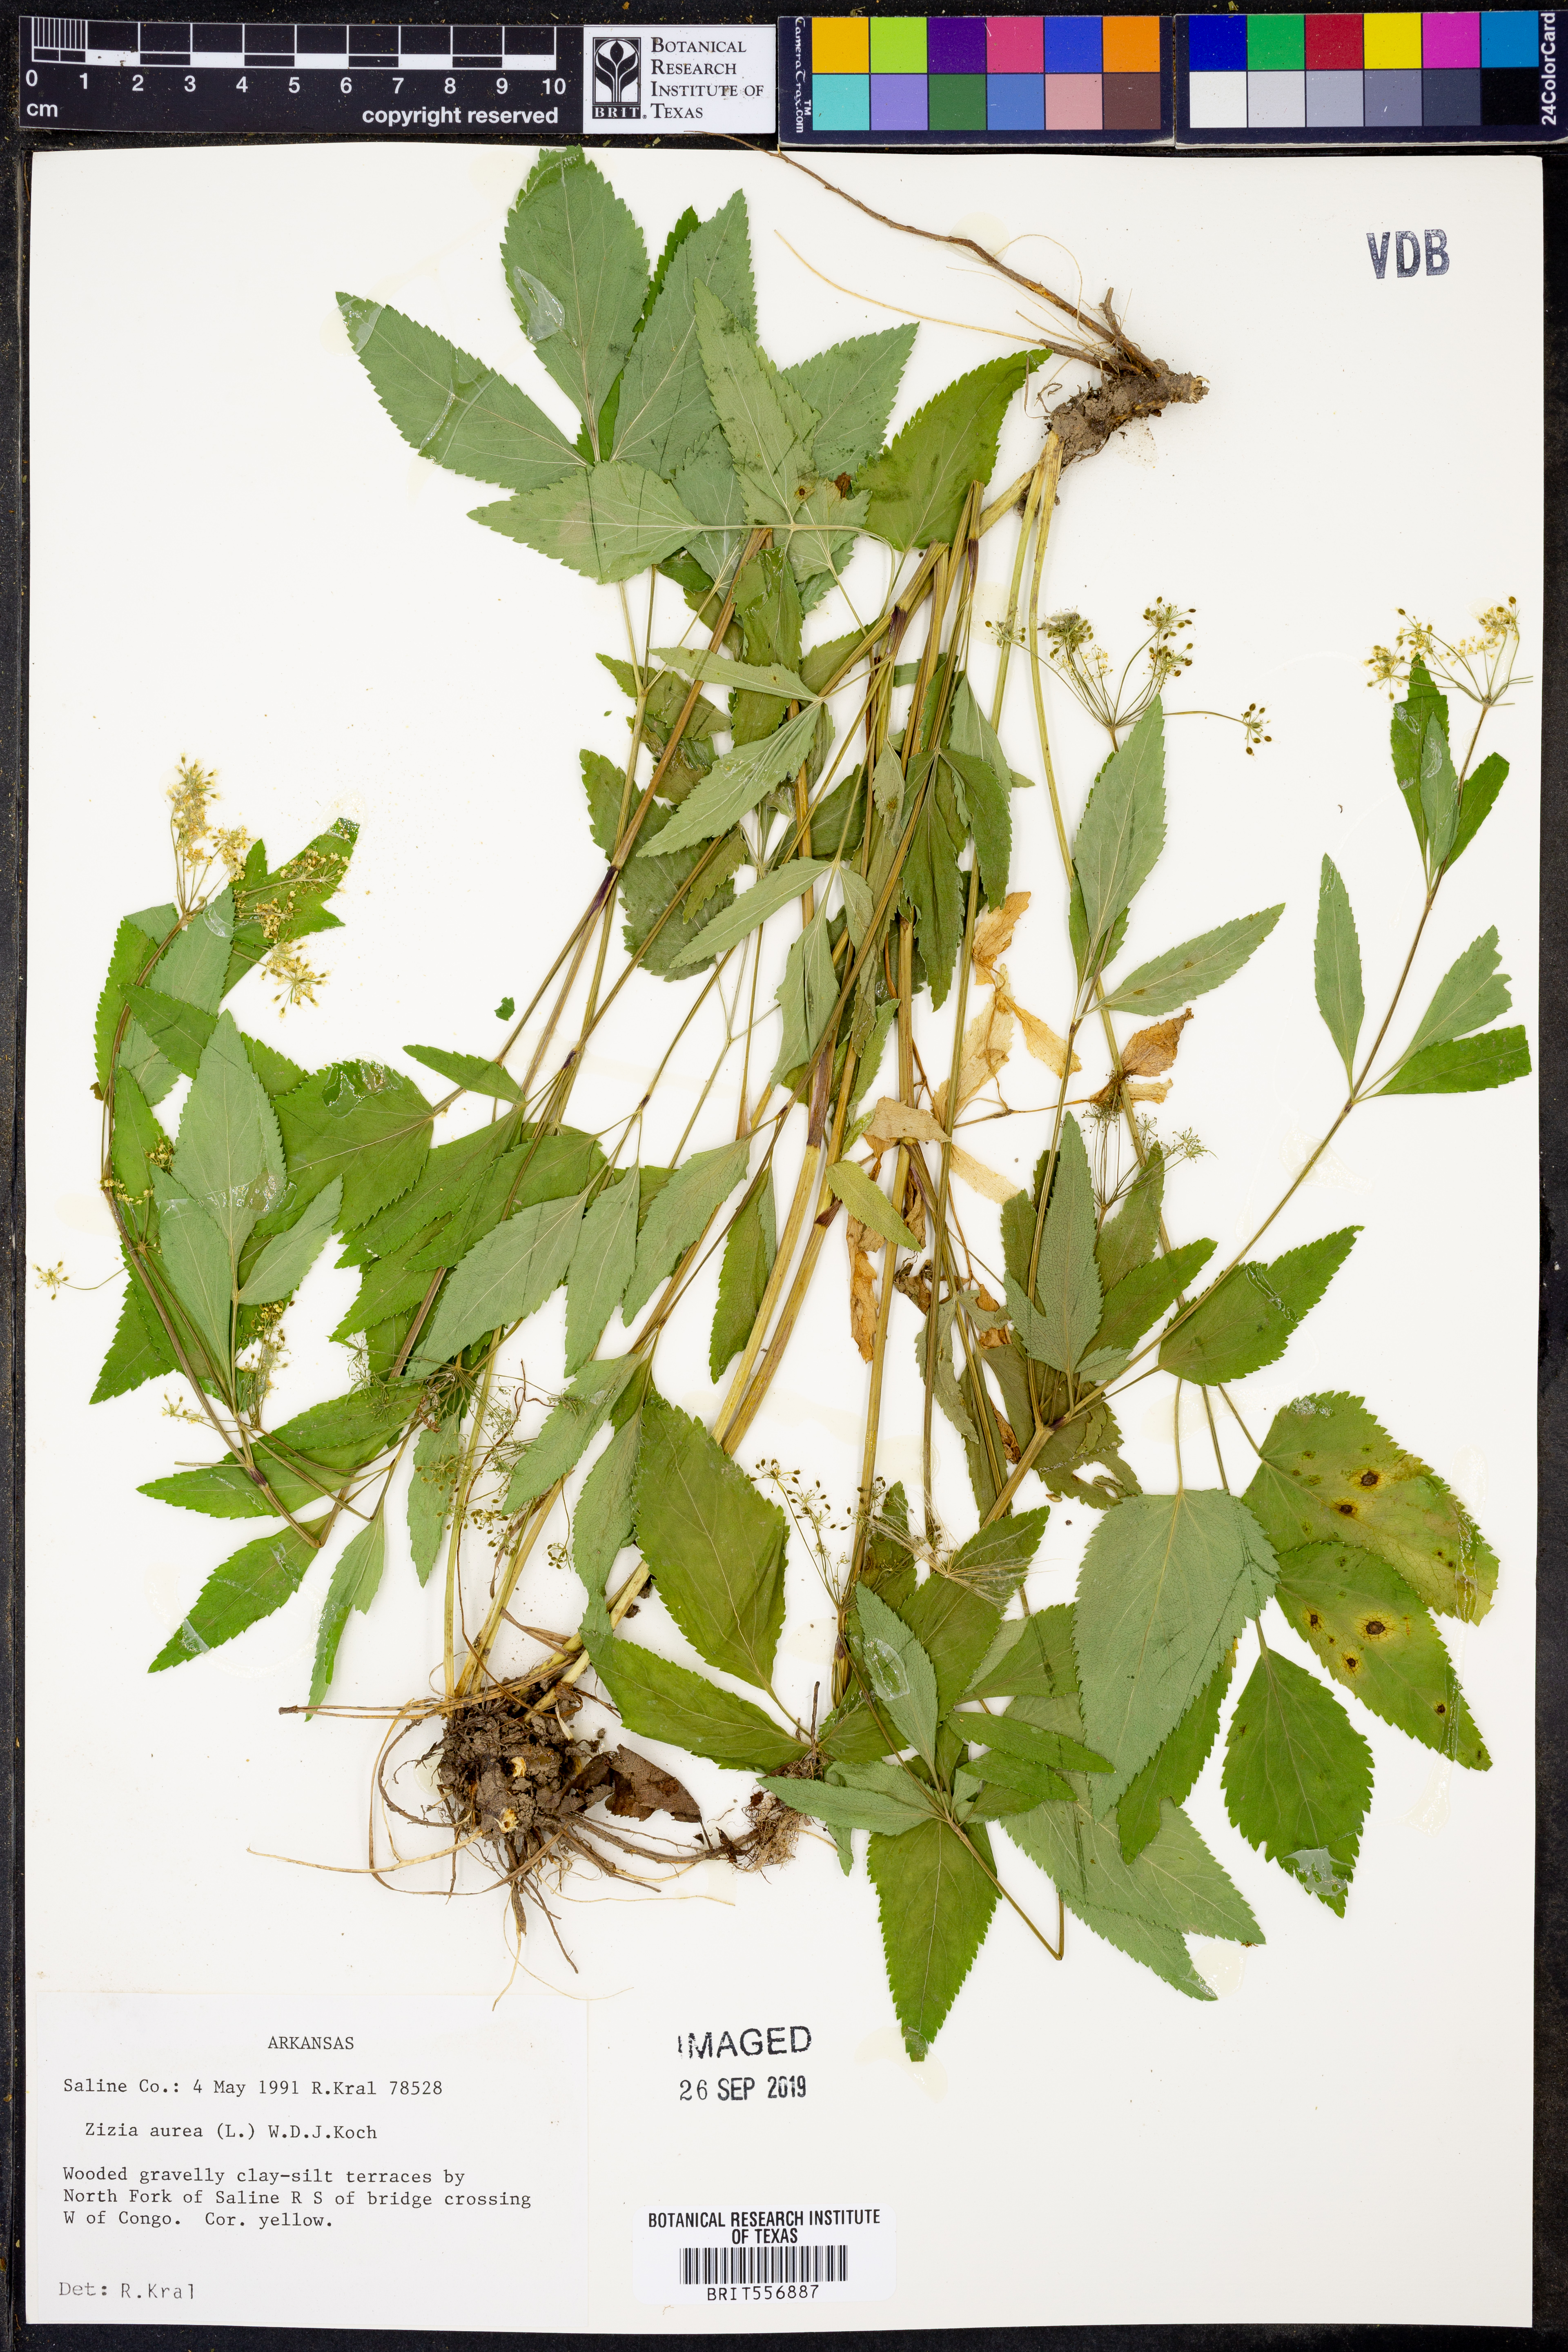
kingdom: Plantae
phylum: Tracheophyta
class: Magnoliopsida
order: Apiales
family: Apiaceae
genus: Zizia
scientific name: Zizia aurea
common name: Golden alexanders
